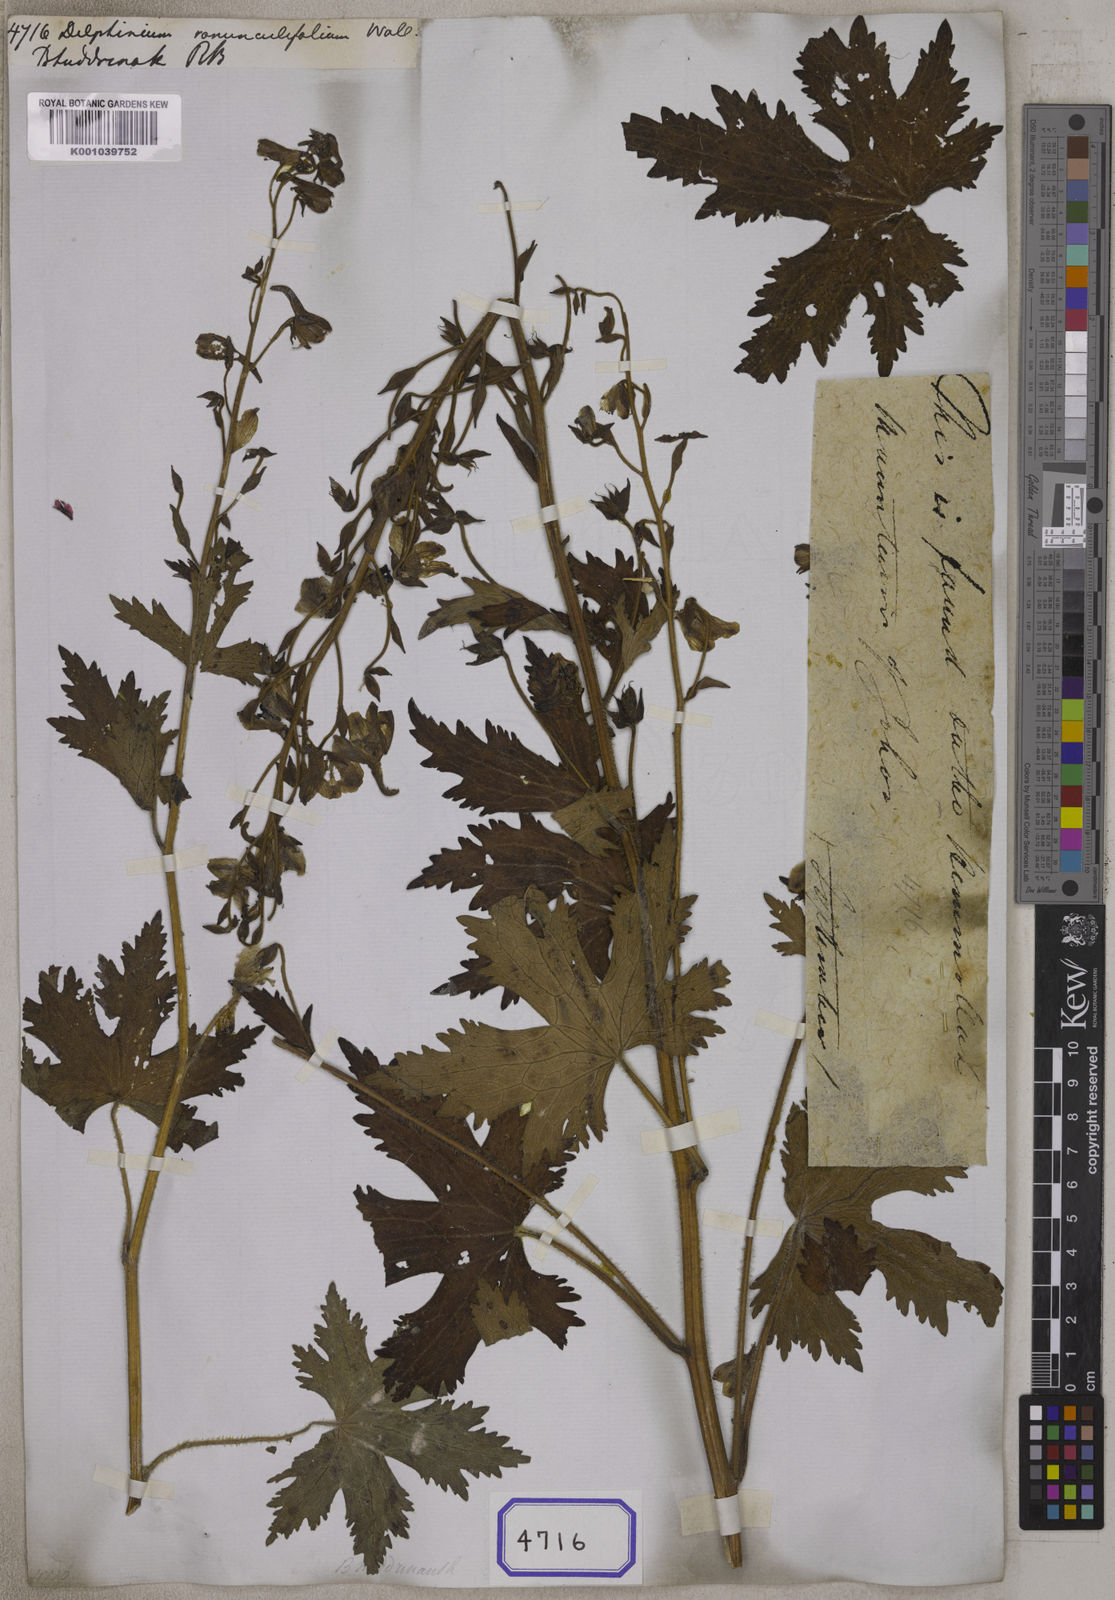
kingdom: Plantae
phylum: Tracheophyta
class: Magnoliopsida
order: Ranunculales
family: Ranunculaceae
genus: Delphinium
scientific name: Delphinium
